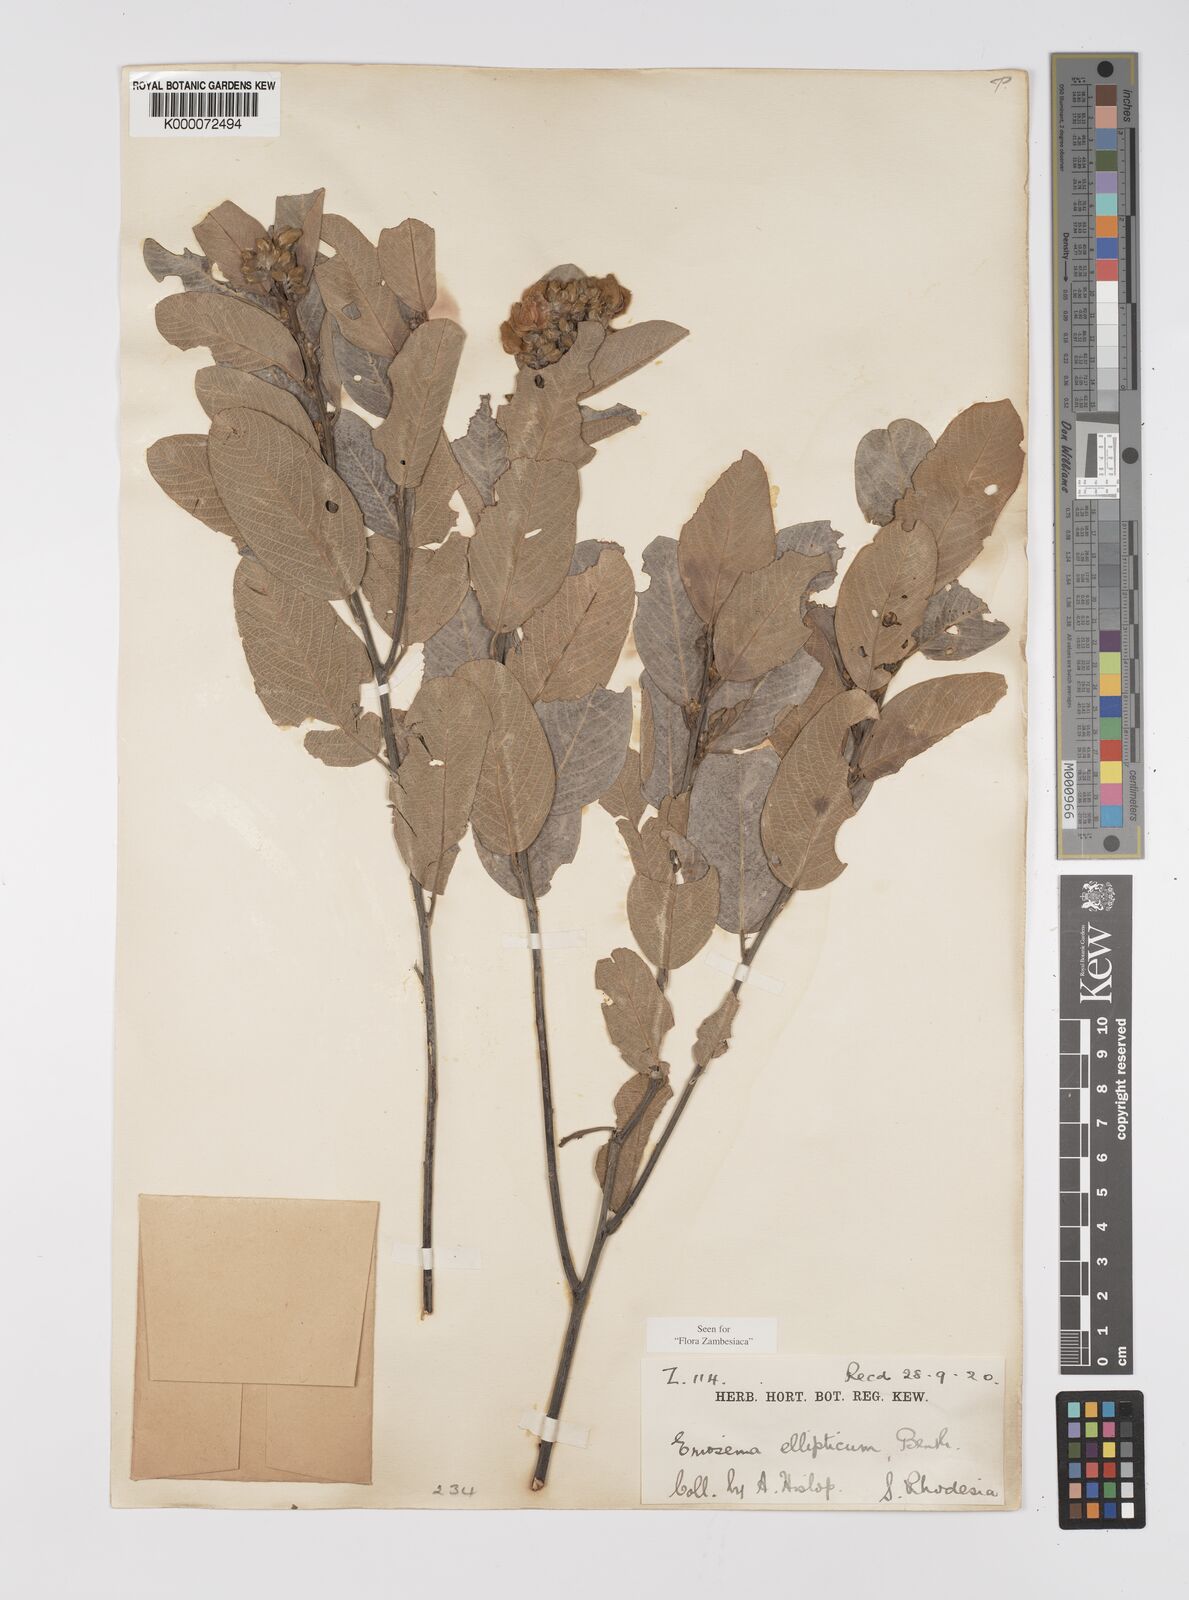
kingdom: Plantae
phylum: Tracheophyta
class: Magnoliopsida
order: Fabales
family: Fabaceae
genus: Eriosema
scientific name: Eriosema ellipticum
